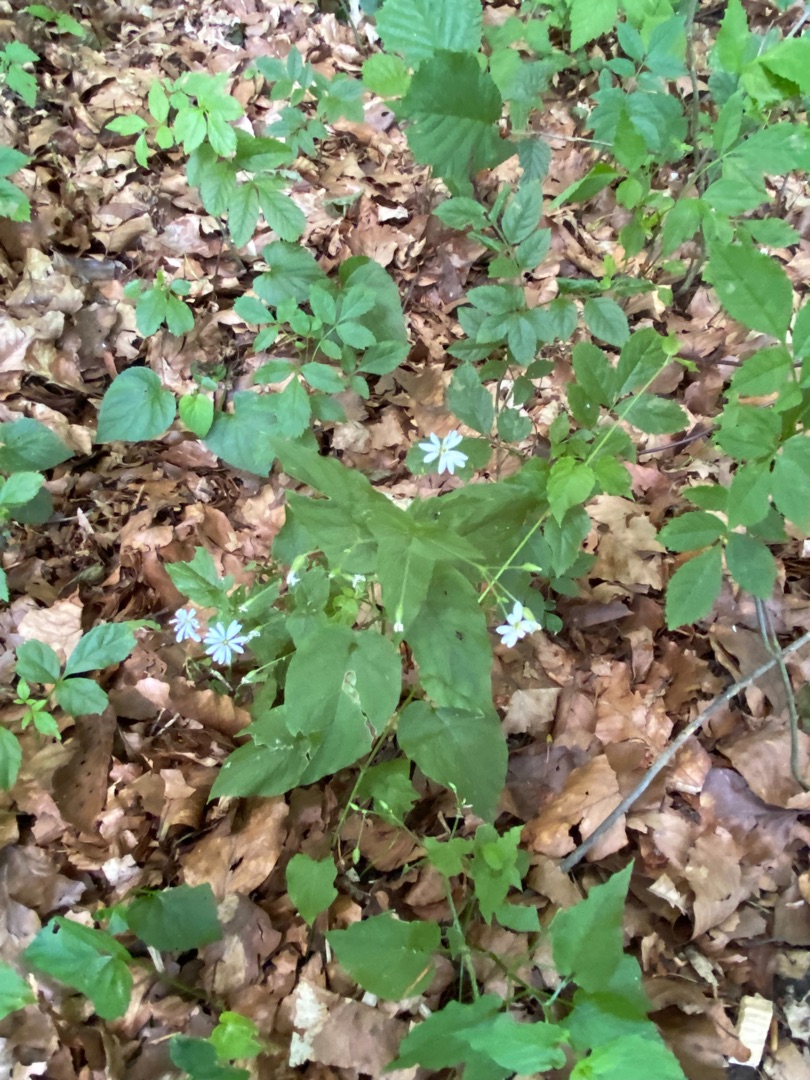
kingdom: Plantae
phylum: Tracheophyta
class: Magnoliopsida
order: Caryophyllales
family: Caryophyllaceae
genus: Stellaria
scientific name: Stellaria glochidisperma
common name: Sydlig lund-fladstjerne
